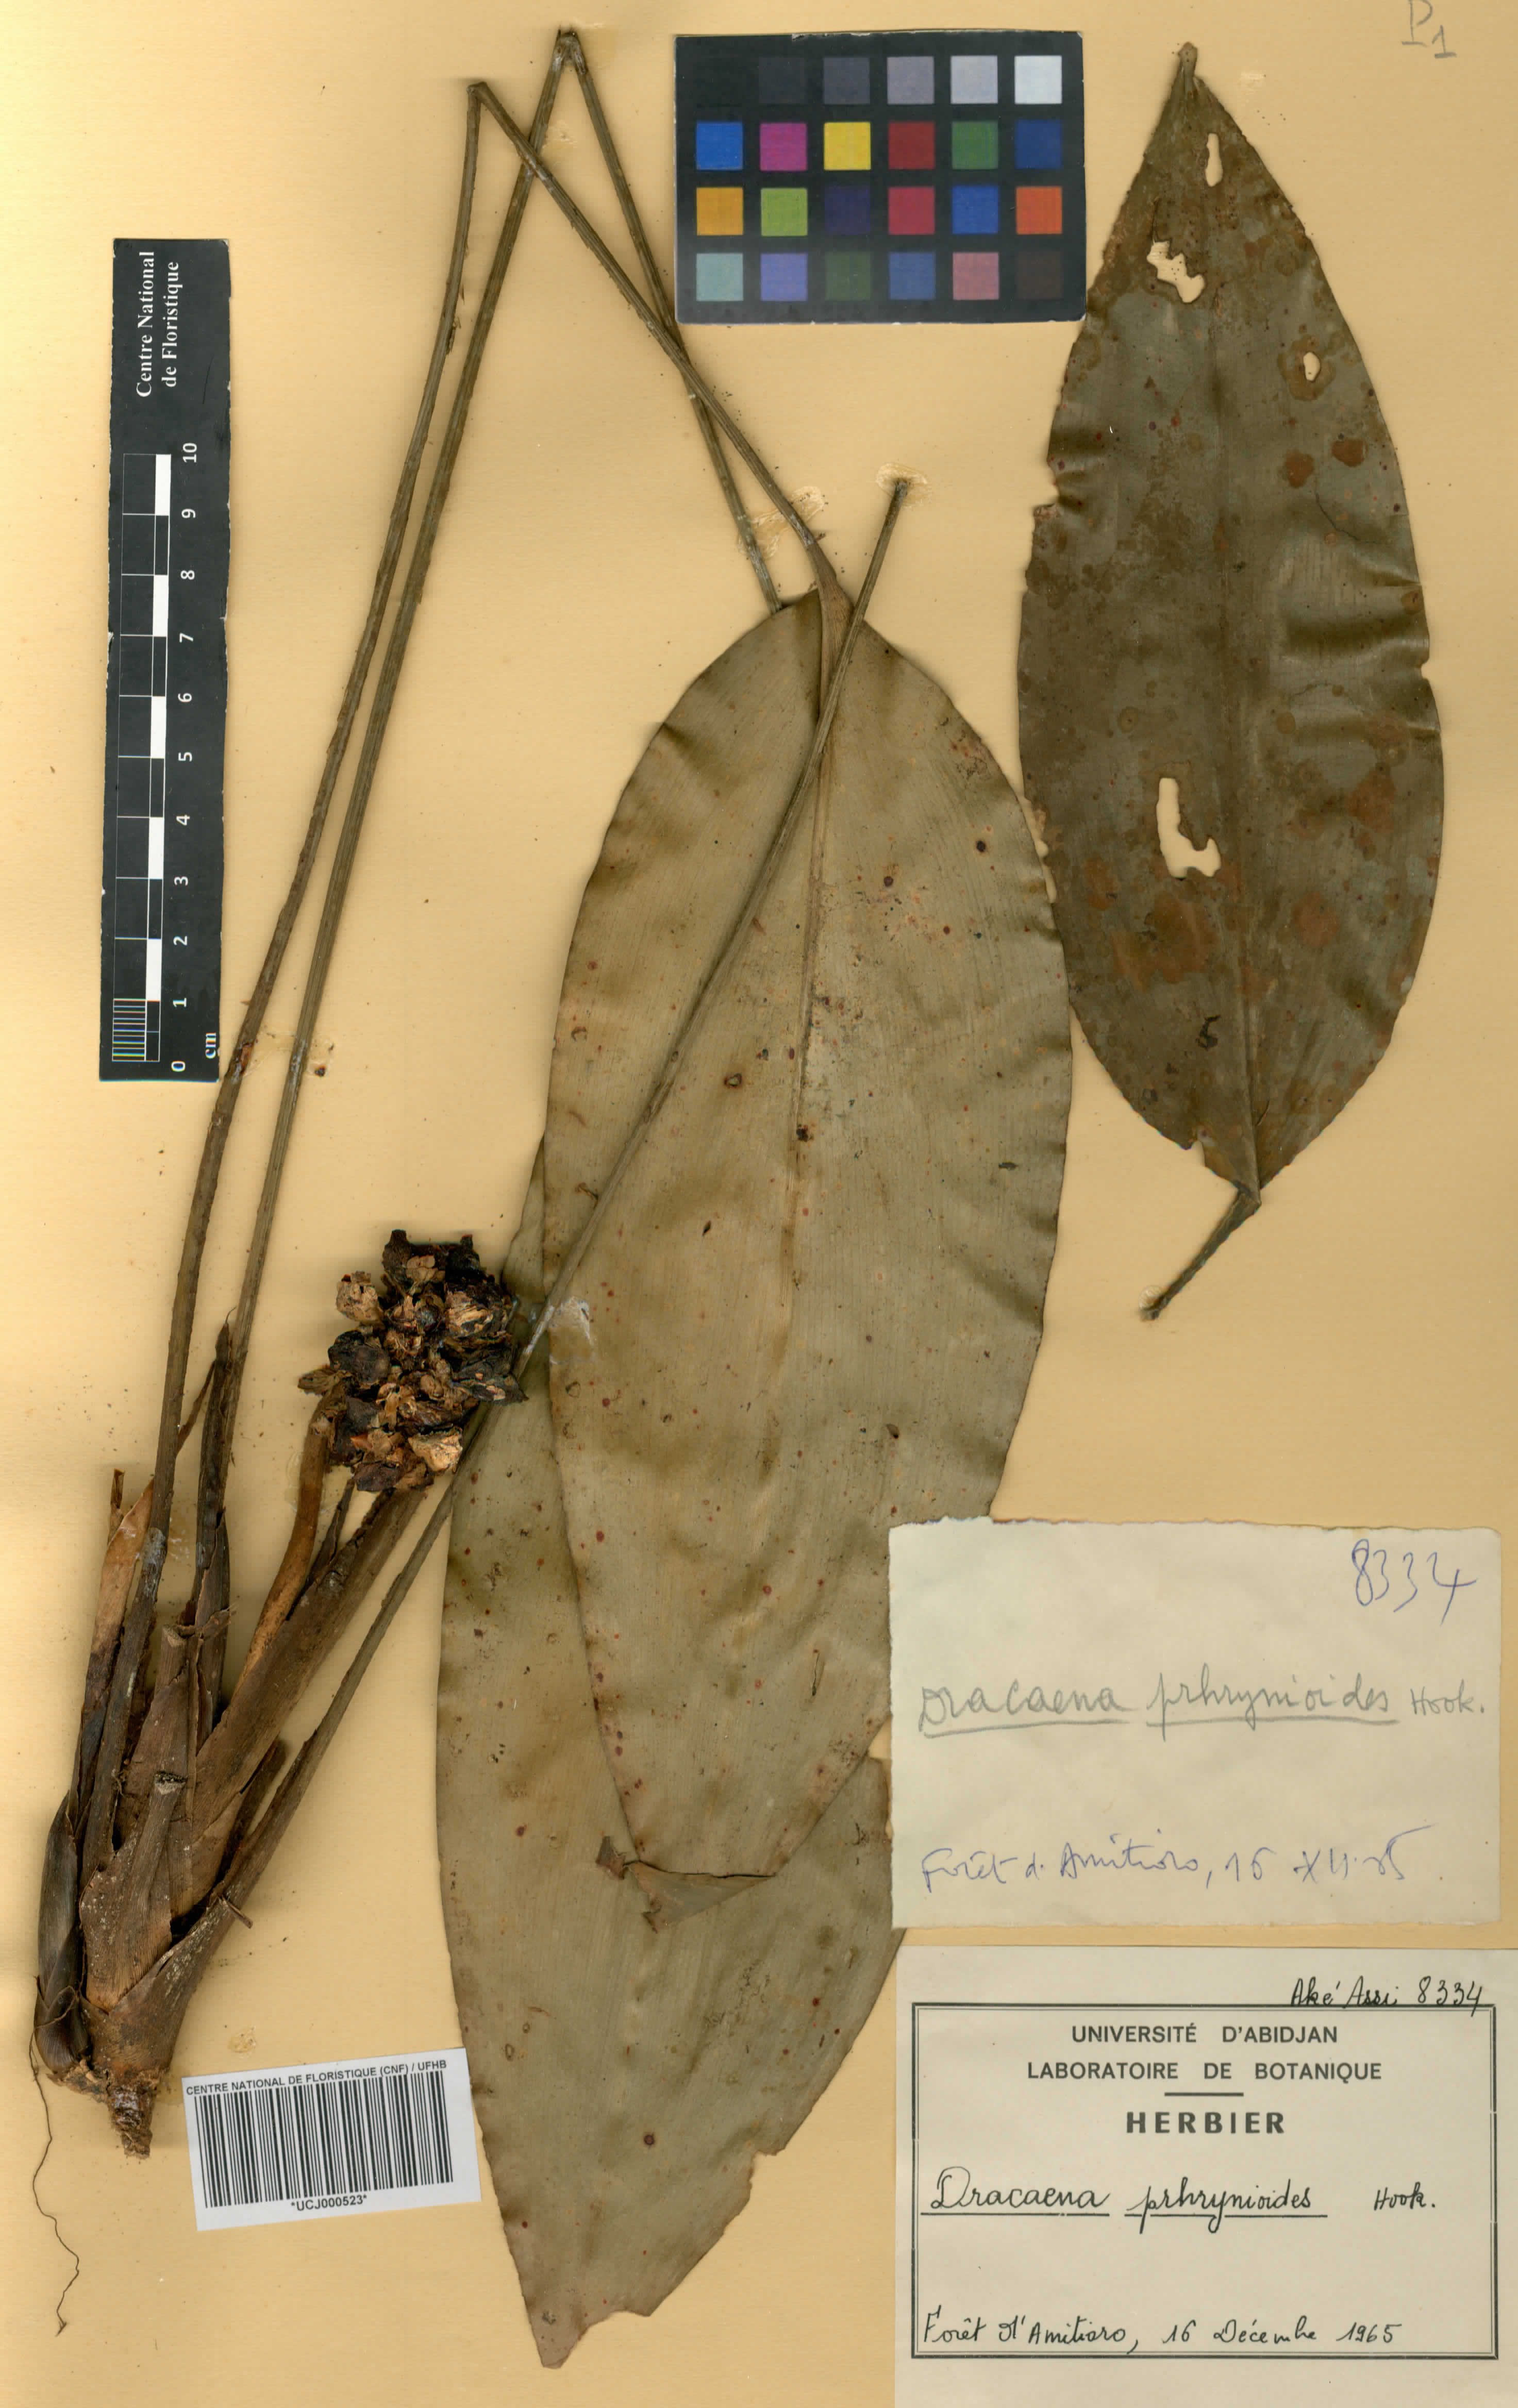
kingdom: Plantae
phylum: Tracheophyta
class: Liliopsida
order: Asparagales
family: Asparagaceae
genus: Dracaena
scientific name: Dracaena phrynioides
